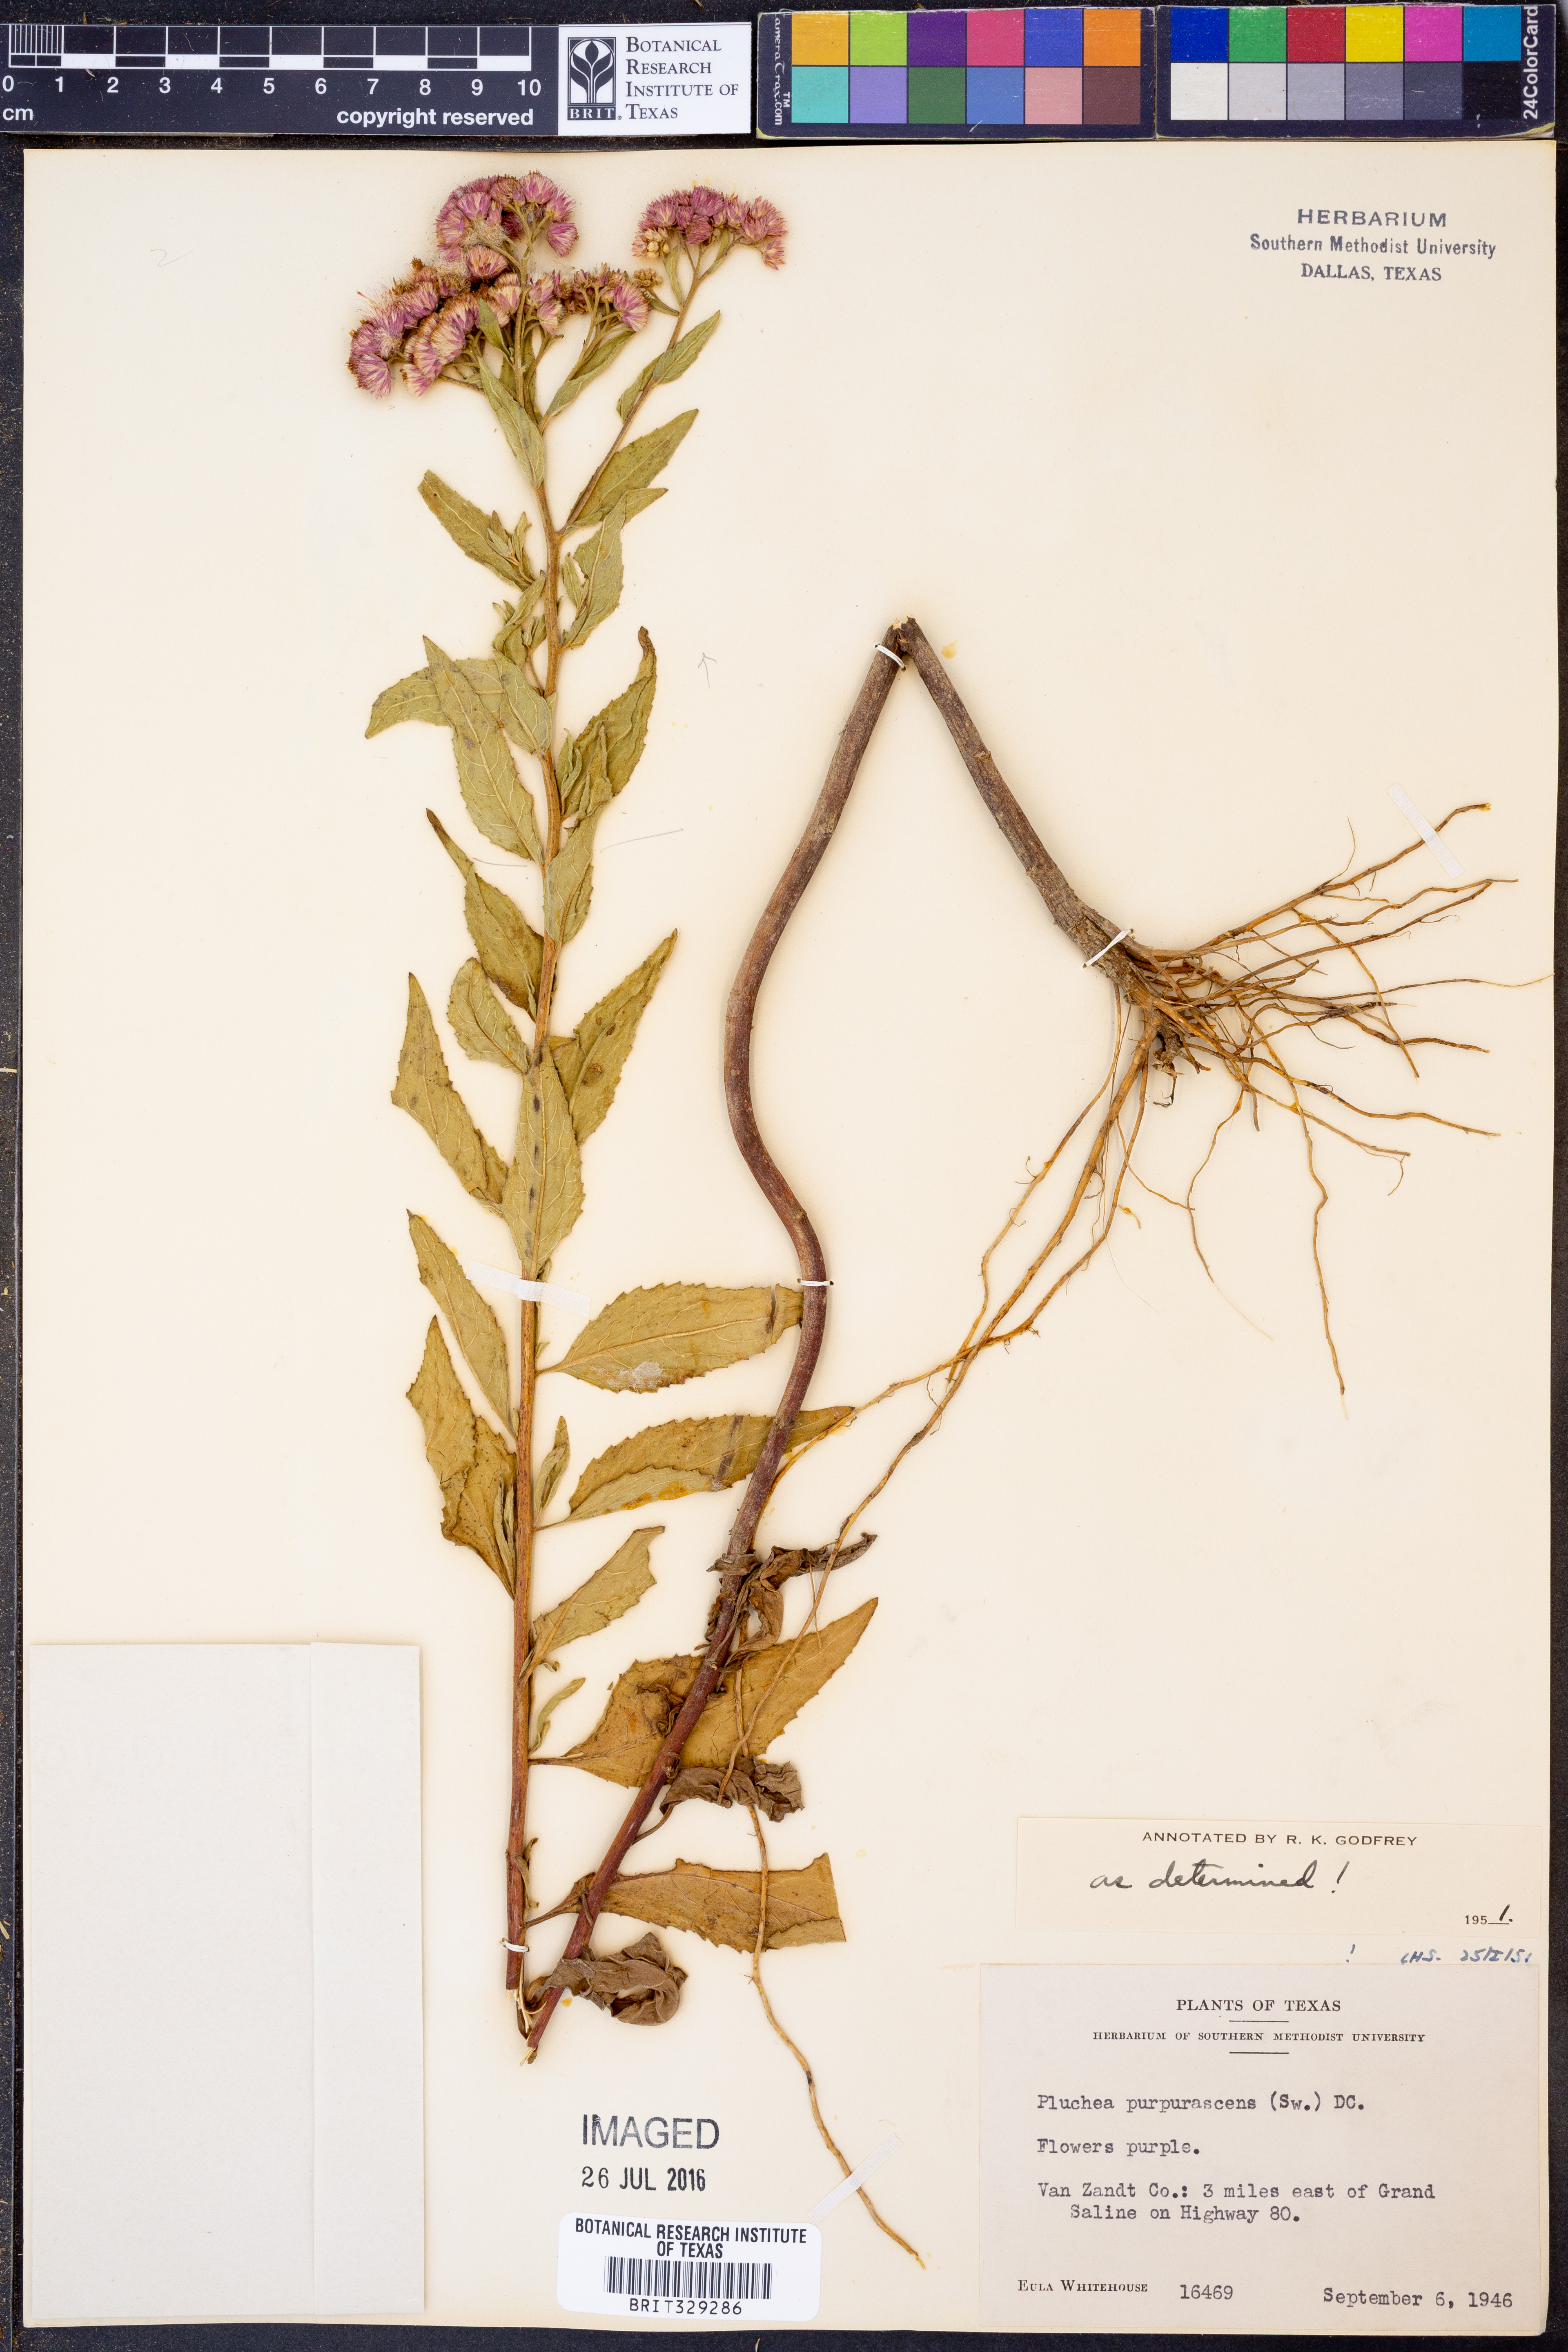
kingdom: Plantae
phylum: Tracheophyta
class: Magnoliopsida
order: Asterales
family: Asteraceae
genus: Pluchea
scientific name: Pluchea odorata
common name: Saltmarsh fleabane
